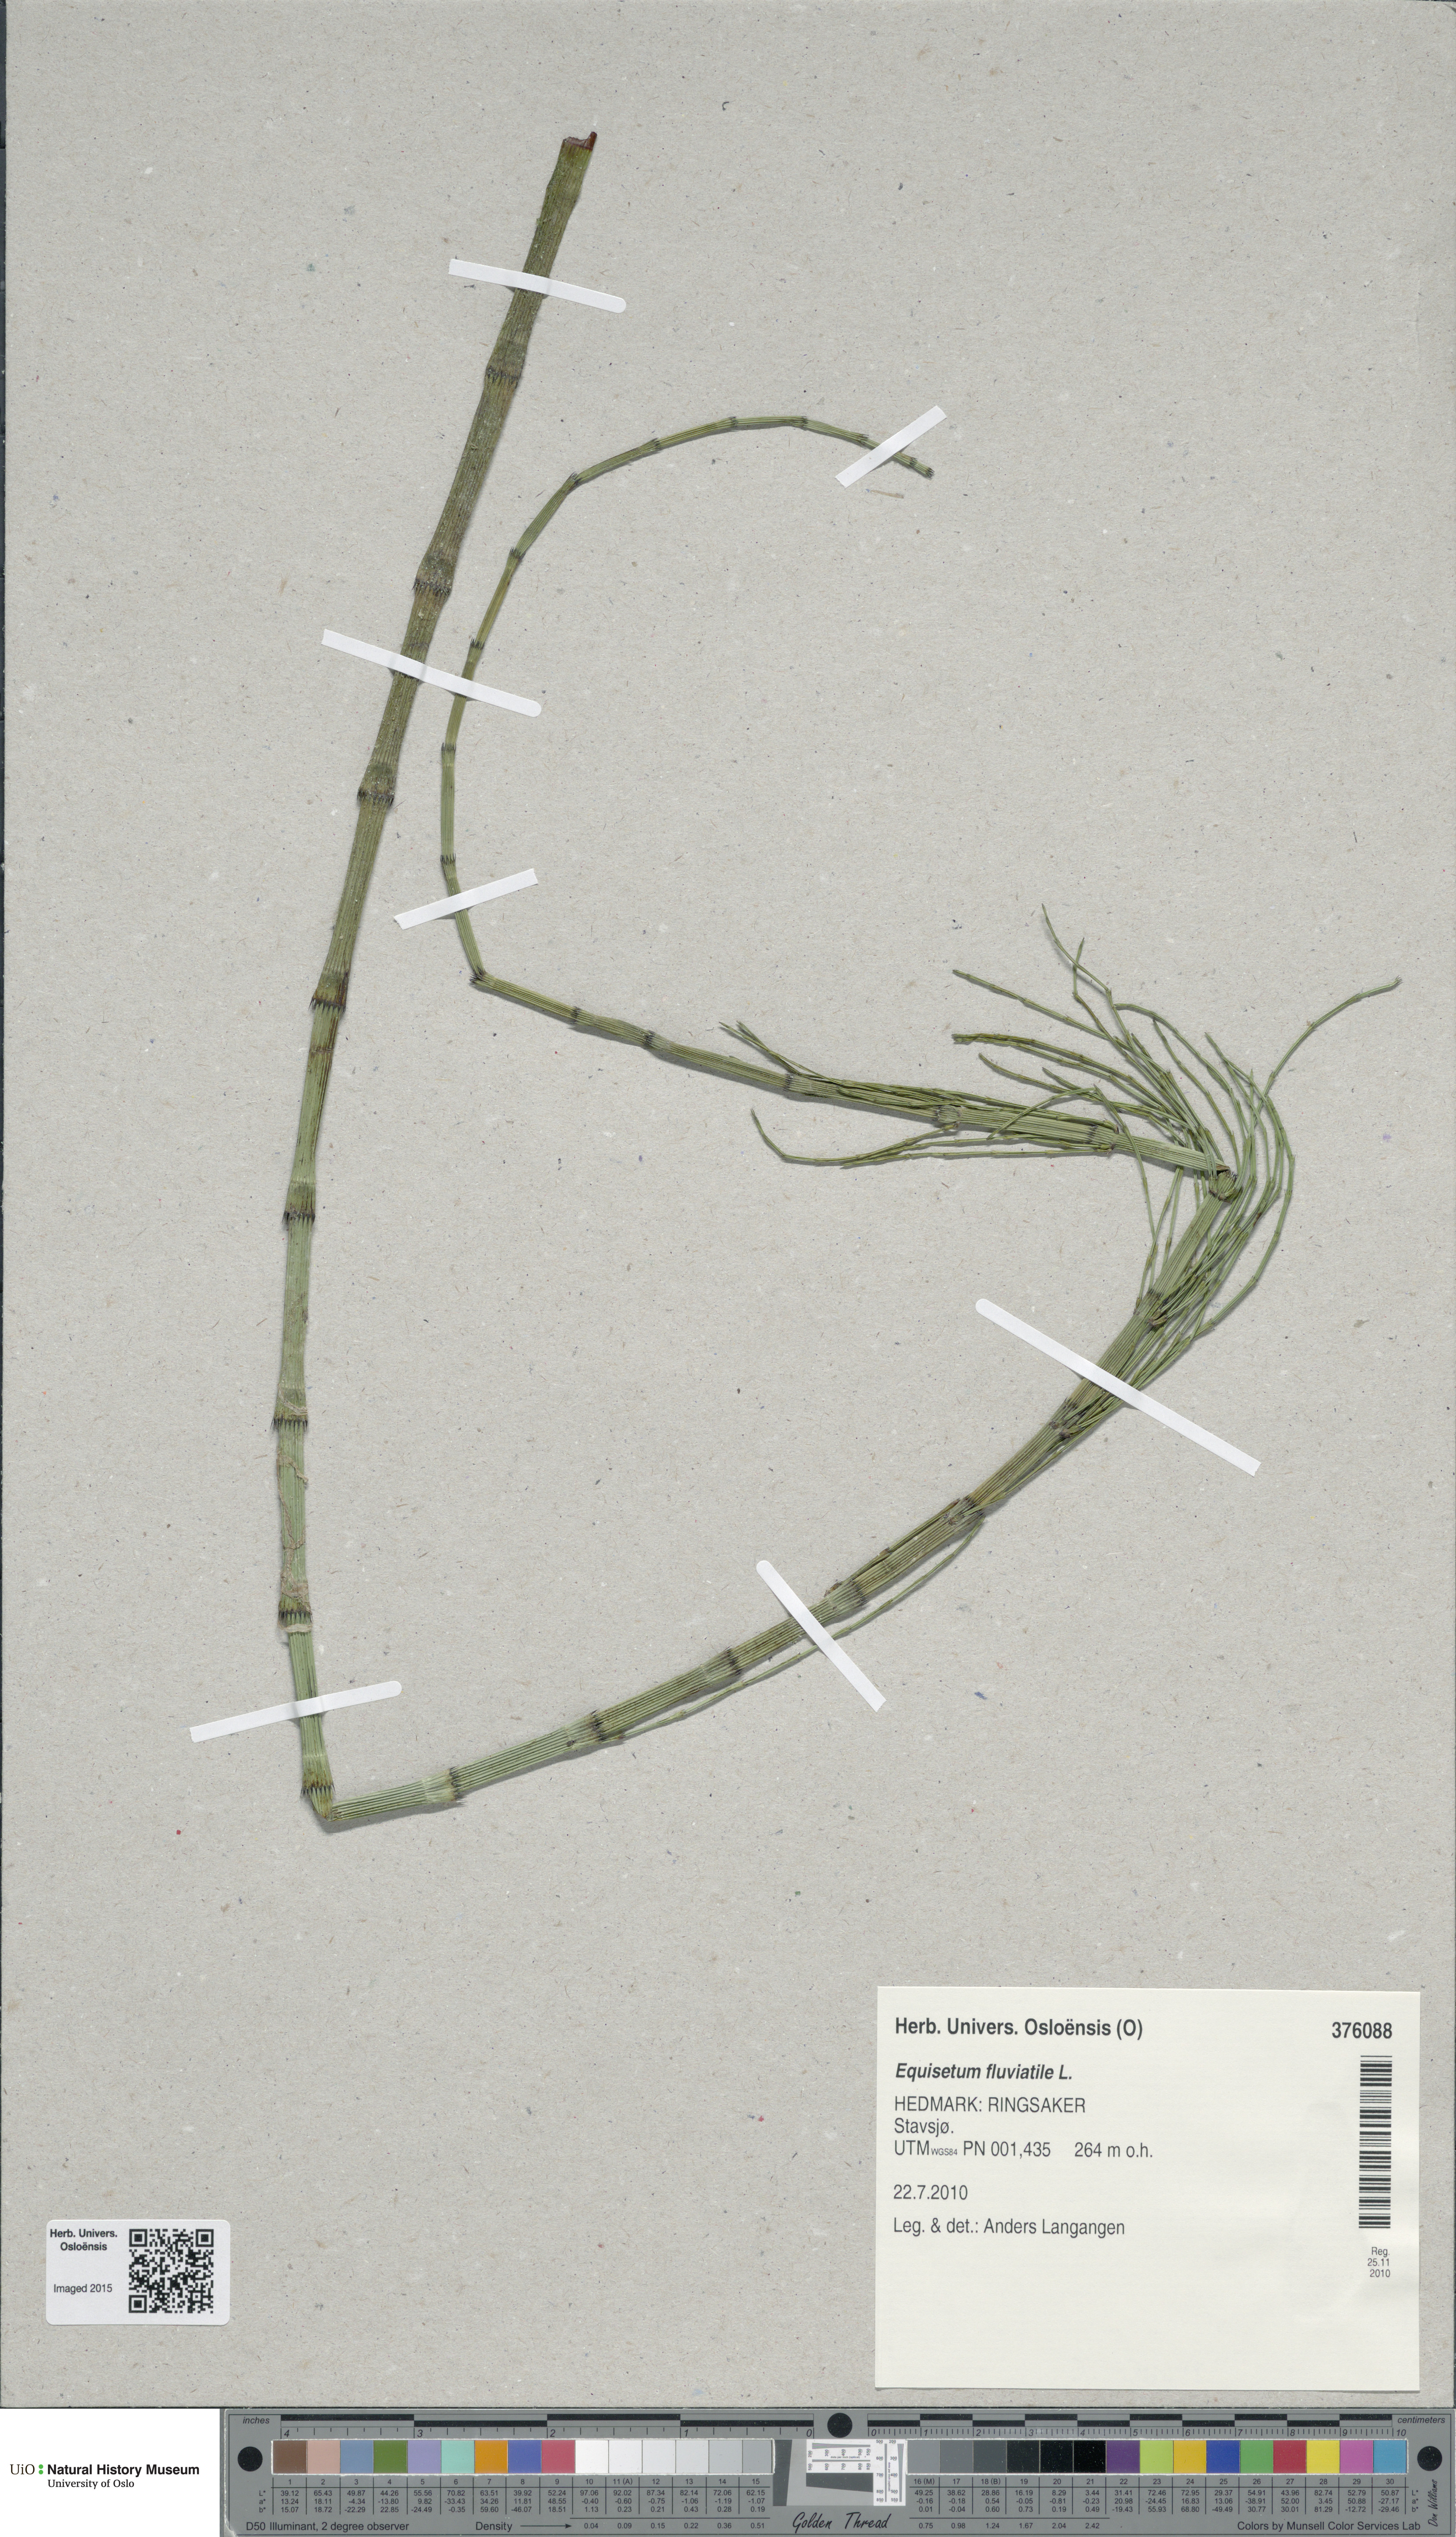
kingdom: Plantae
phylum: Tracheophyta
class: Polypodiopsida
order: Equisetales
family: Equisetaceae
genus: Equisetum
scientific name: Equisetum fluviatile
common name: Water horsetail
